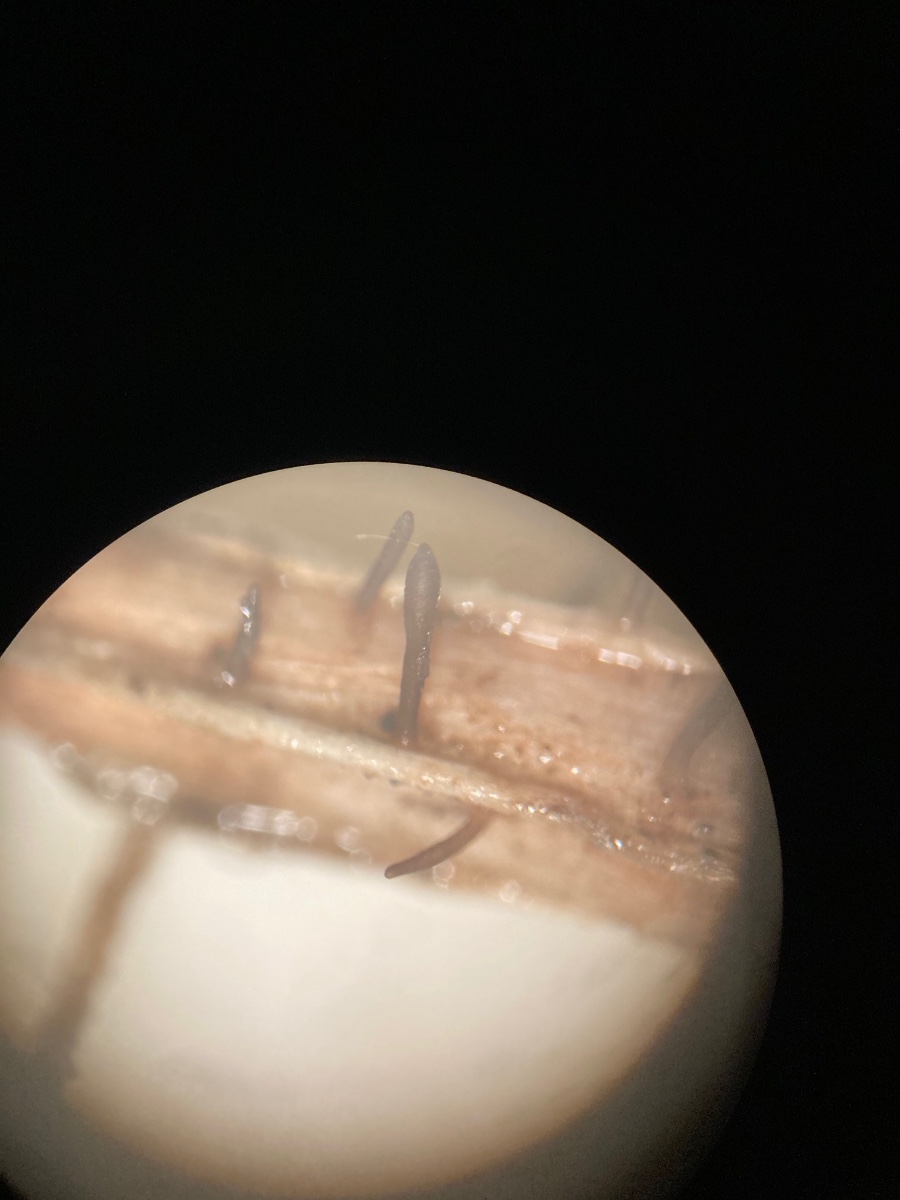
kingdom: Fungi
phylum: Ascomycota
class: Dothideomycetes
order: Acrospermales
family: Acrospermaceae
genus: Acrospermum
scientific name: Acrospermum pallidulum
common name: snerre-stængeltunge
